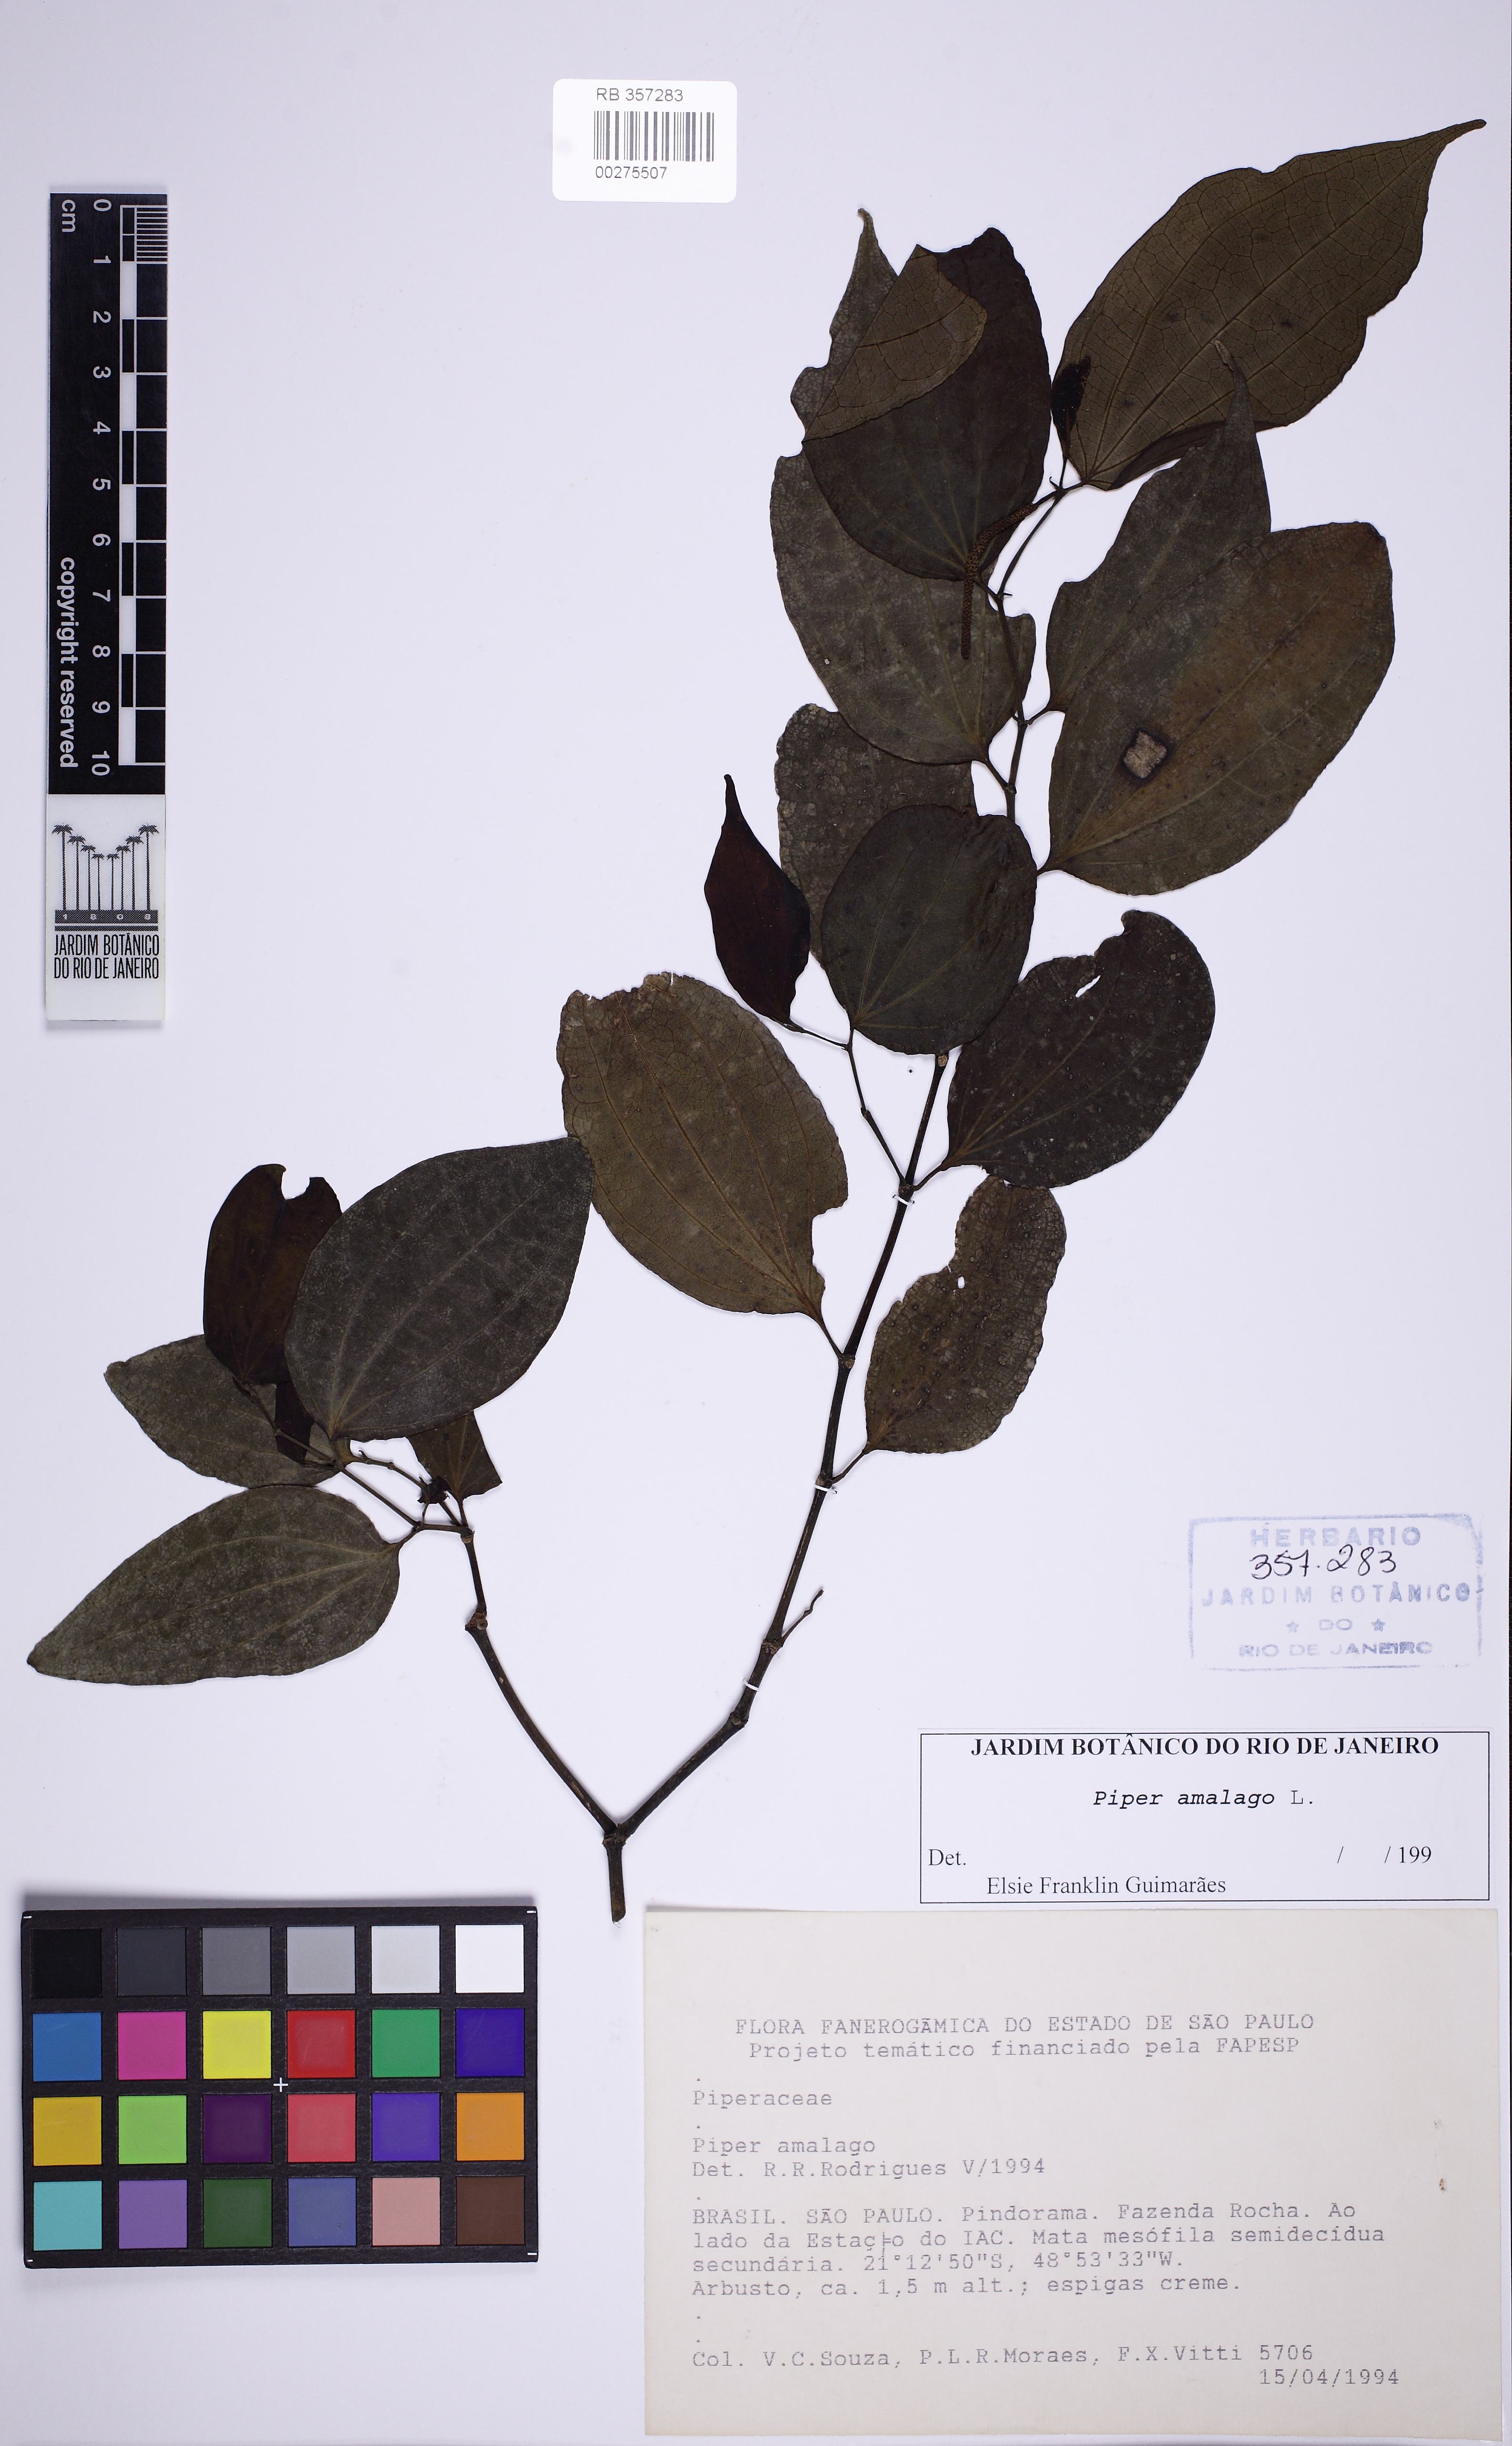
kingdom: Plantae
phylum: Tracheophyta
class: Magnoliopsida
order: Piperales
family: Piperaceae
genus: Piper
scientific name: Piper amalago
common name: Pepper-elder
